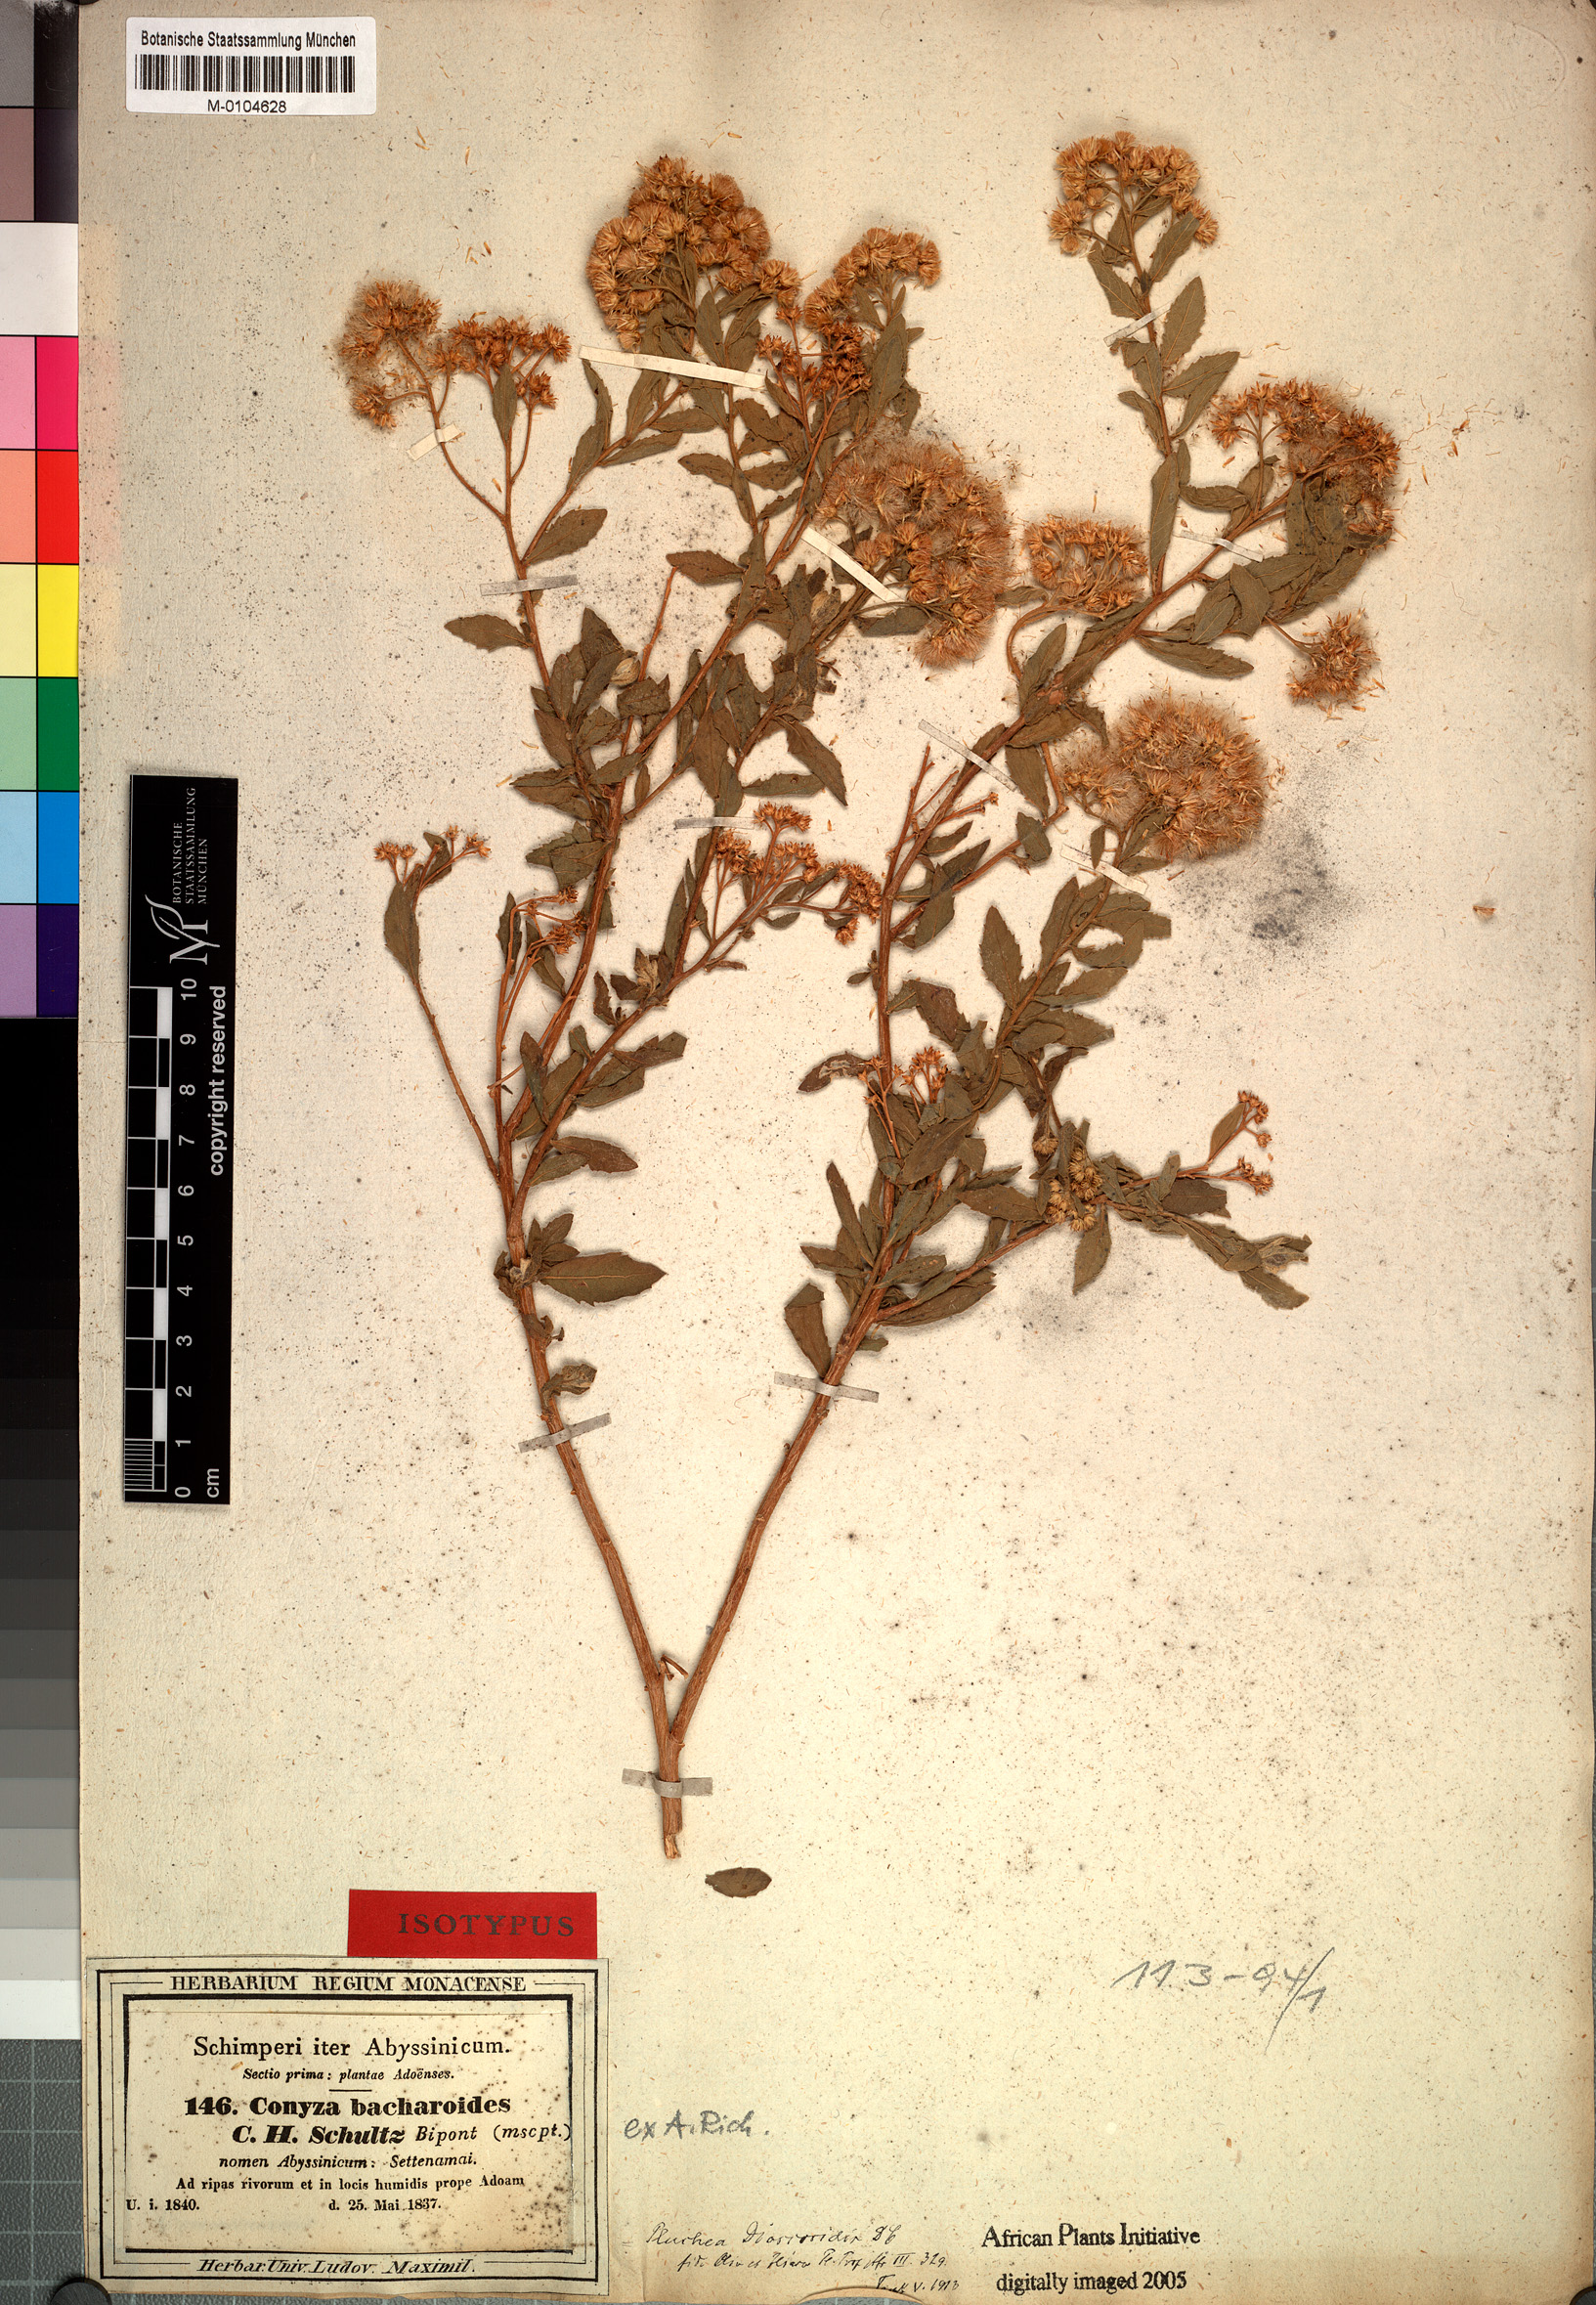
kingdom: Plantae
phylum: Tracheophyta
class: Magnoliopsida
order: Asterales
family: Asteraceae
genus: Pluchea
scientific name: Pluchea dioscoridis
